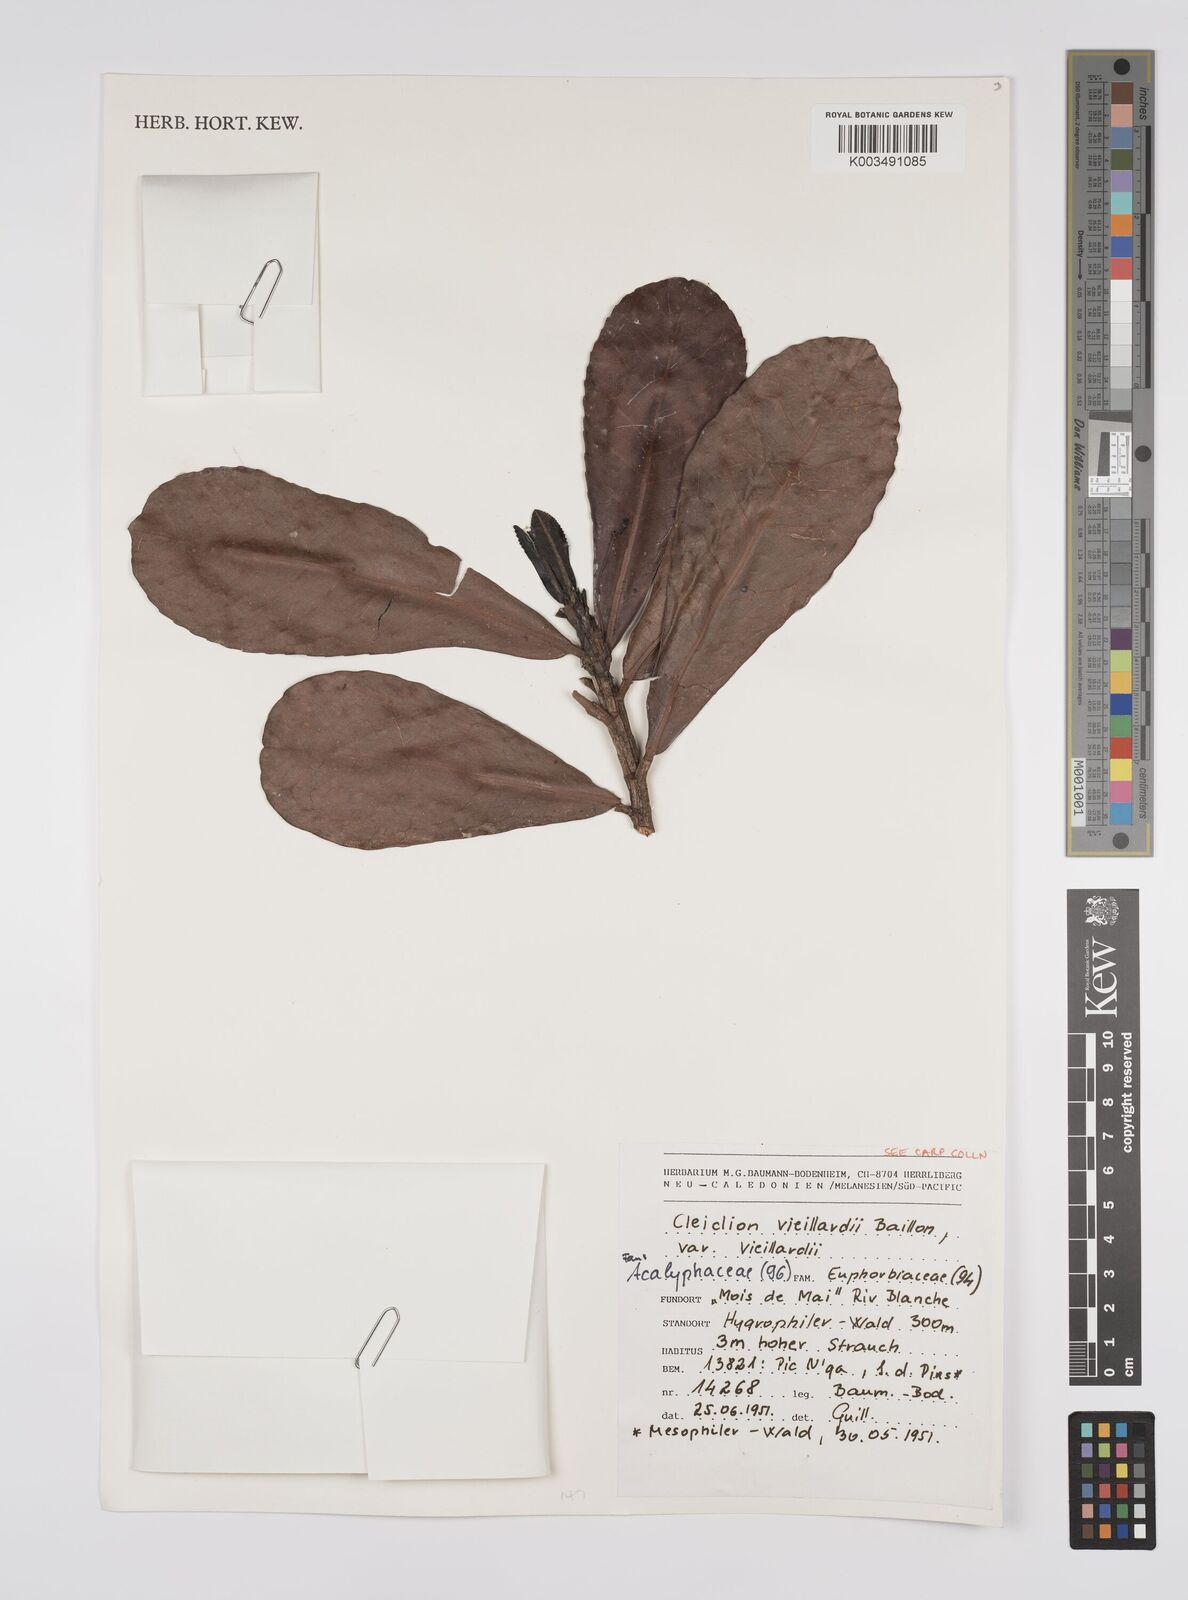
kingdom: Plantae
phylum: Tracheophyta
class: Magnoliopsida
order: Malpighiales
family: Euphorbiaceae
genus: Cleidion
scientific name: Cleidion vieillardii
